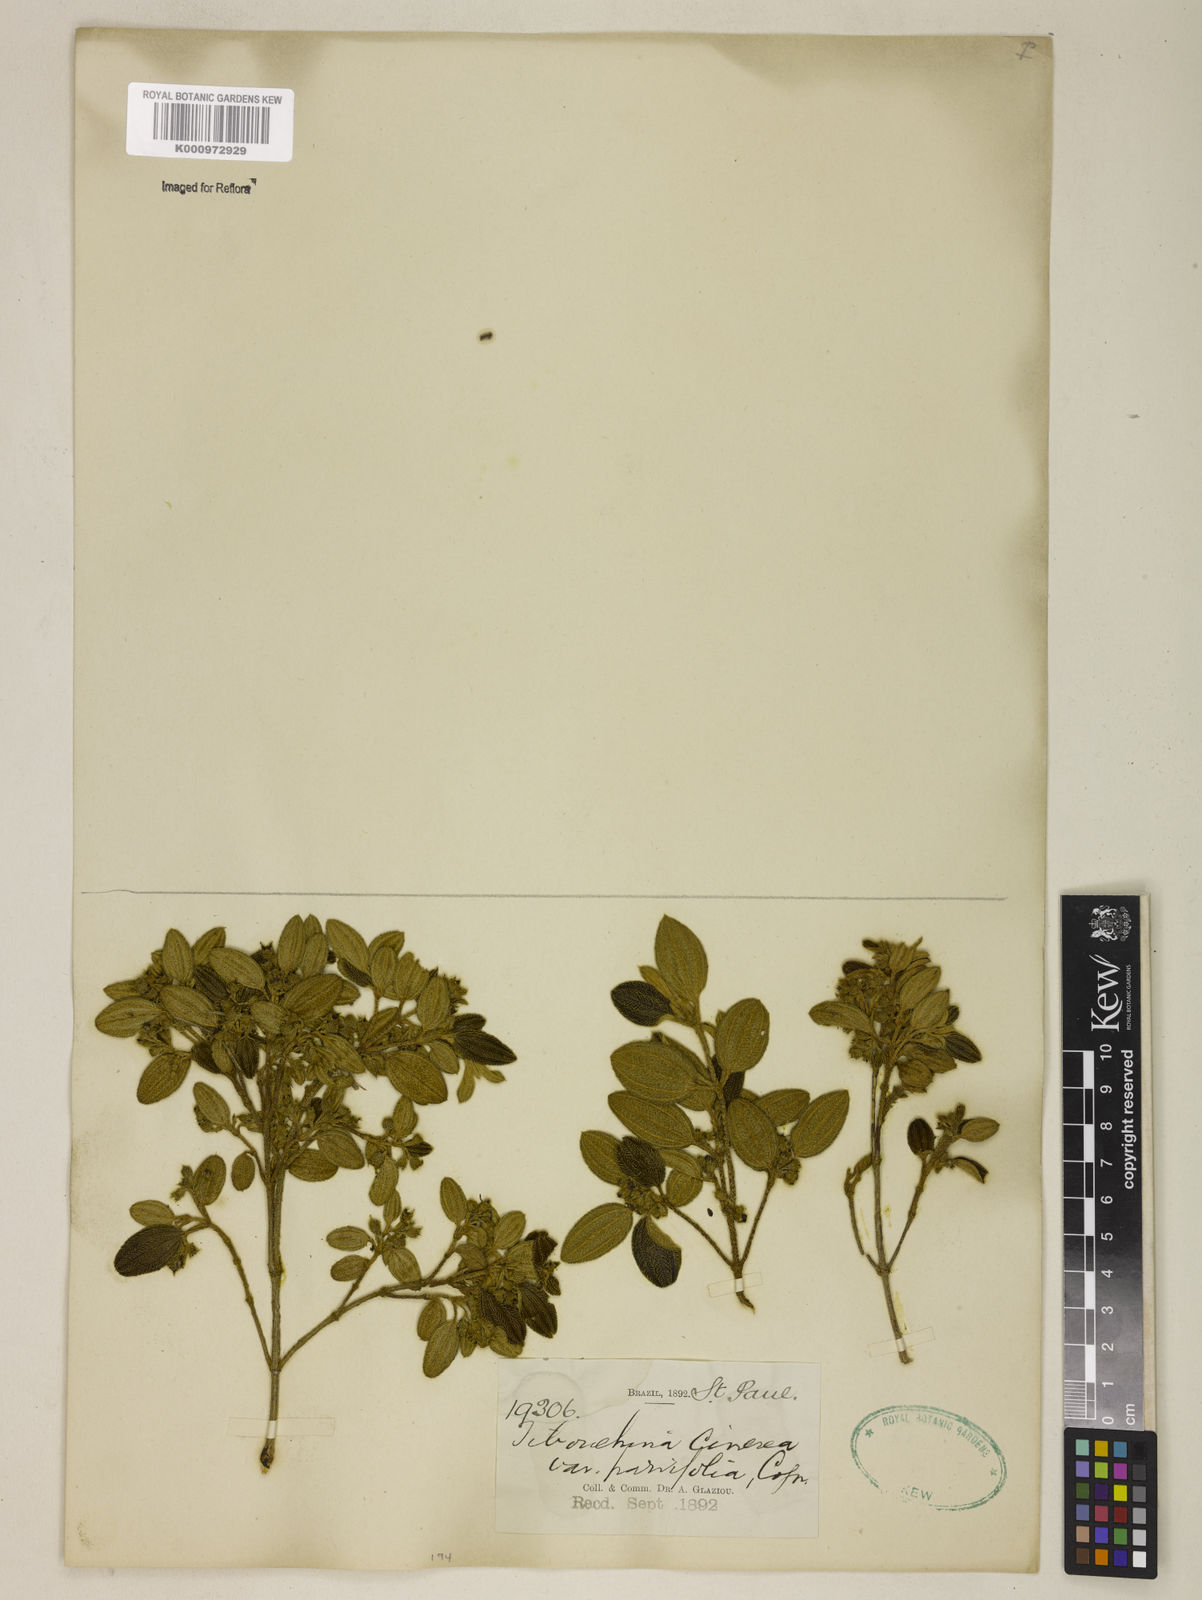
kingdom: Plantae
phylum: Tracheophyta
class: Magnoliopsida
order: Myrtales
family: Melastomataceae
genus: Pleroma
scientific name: Pleroma cinereum
